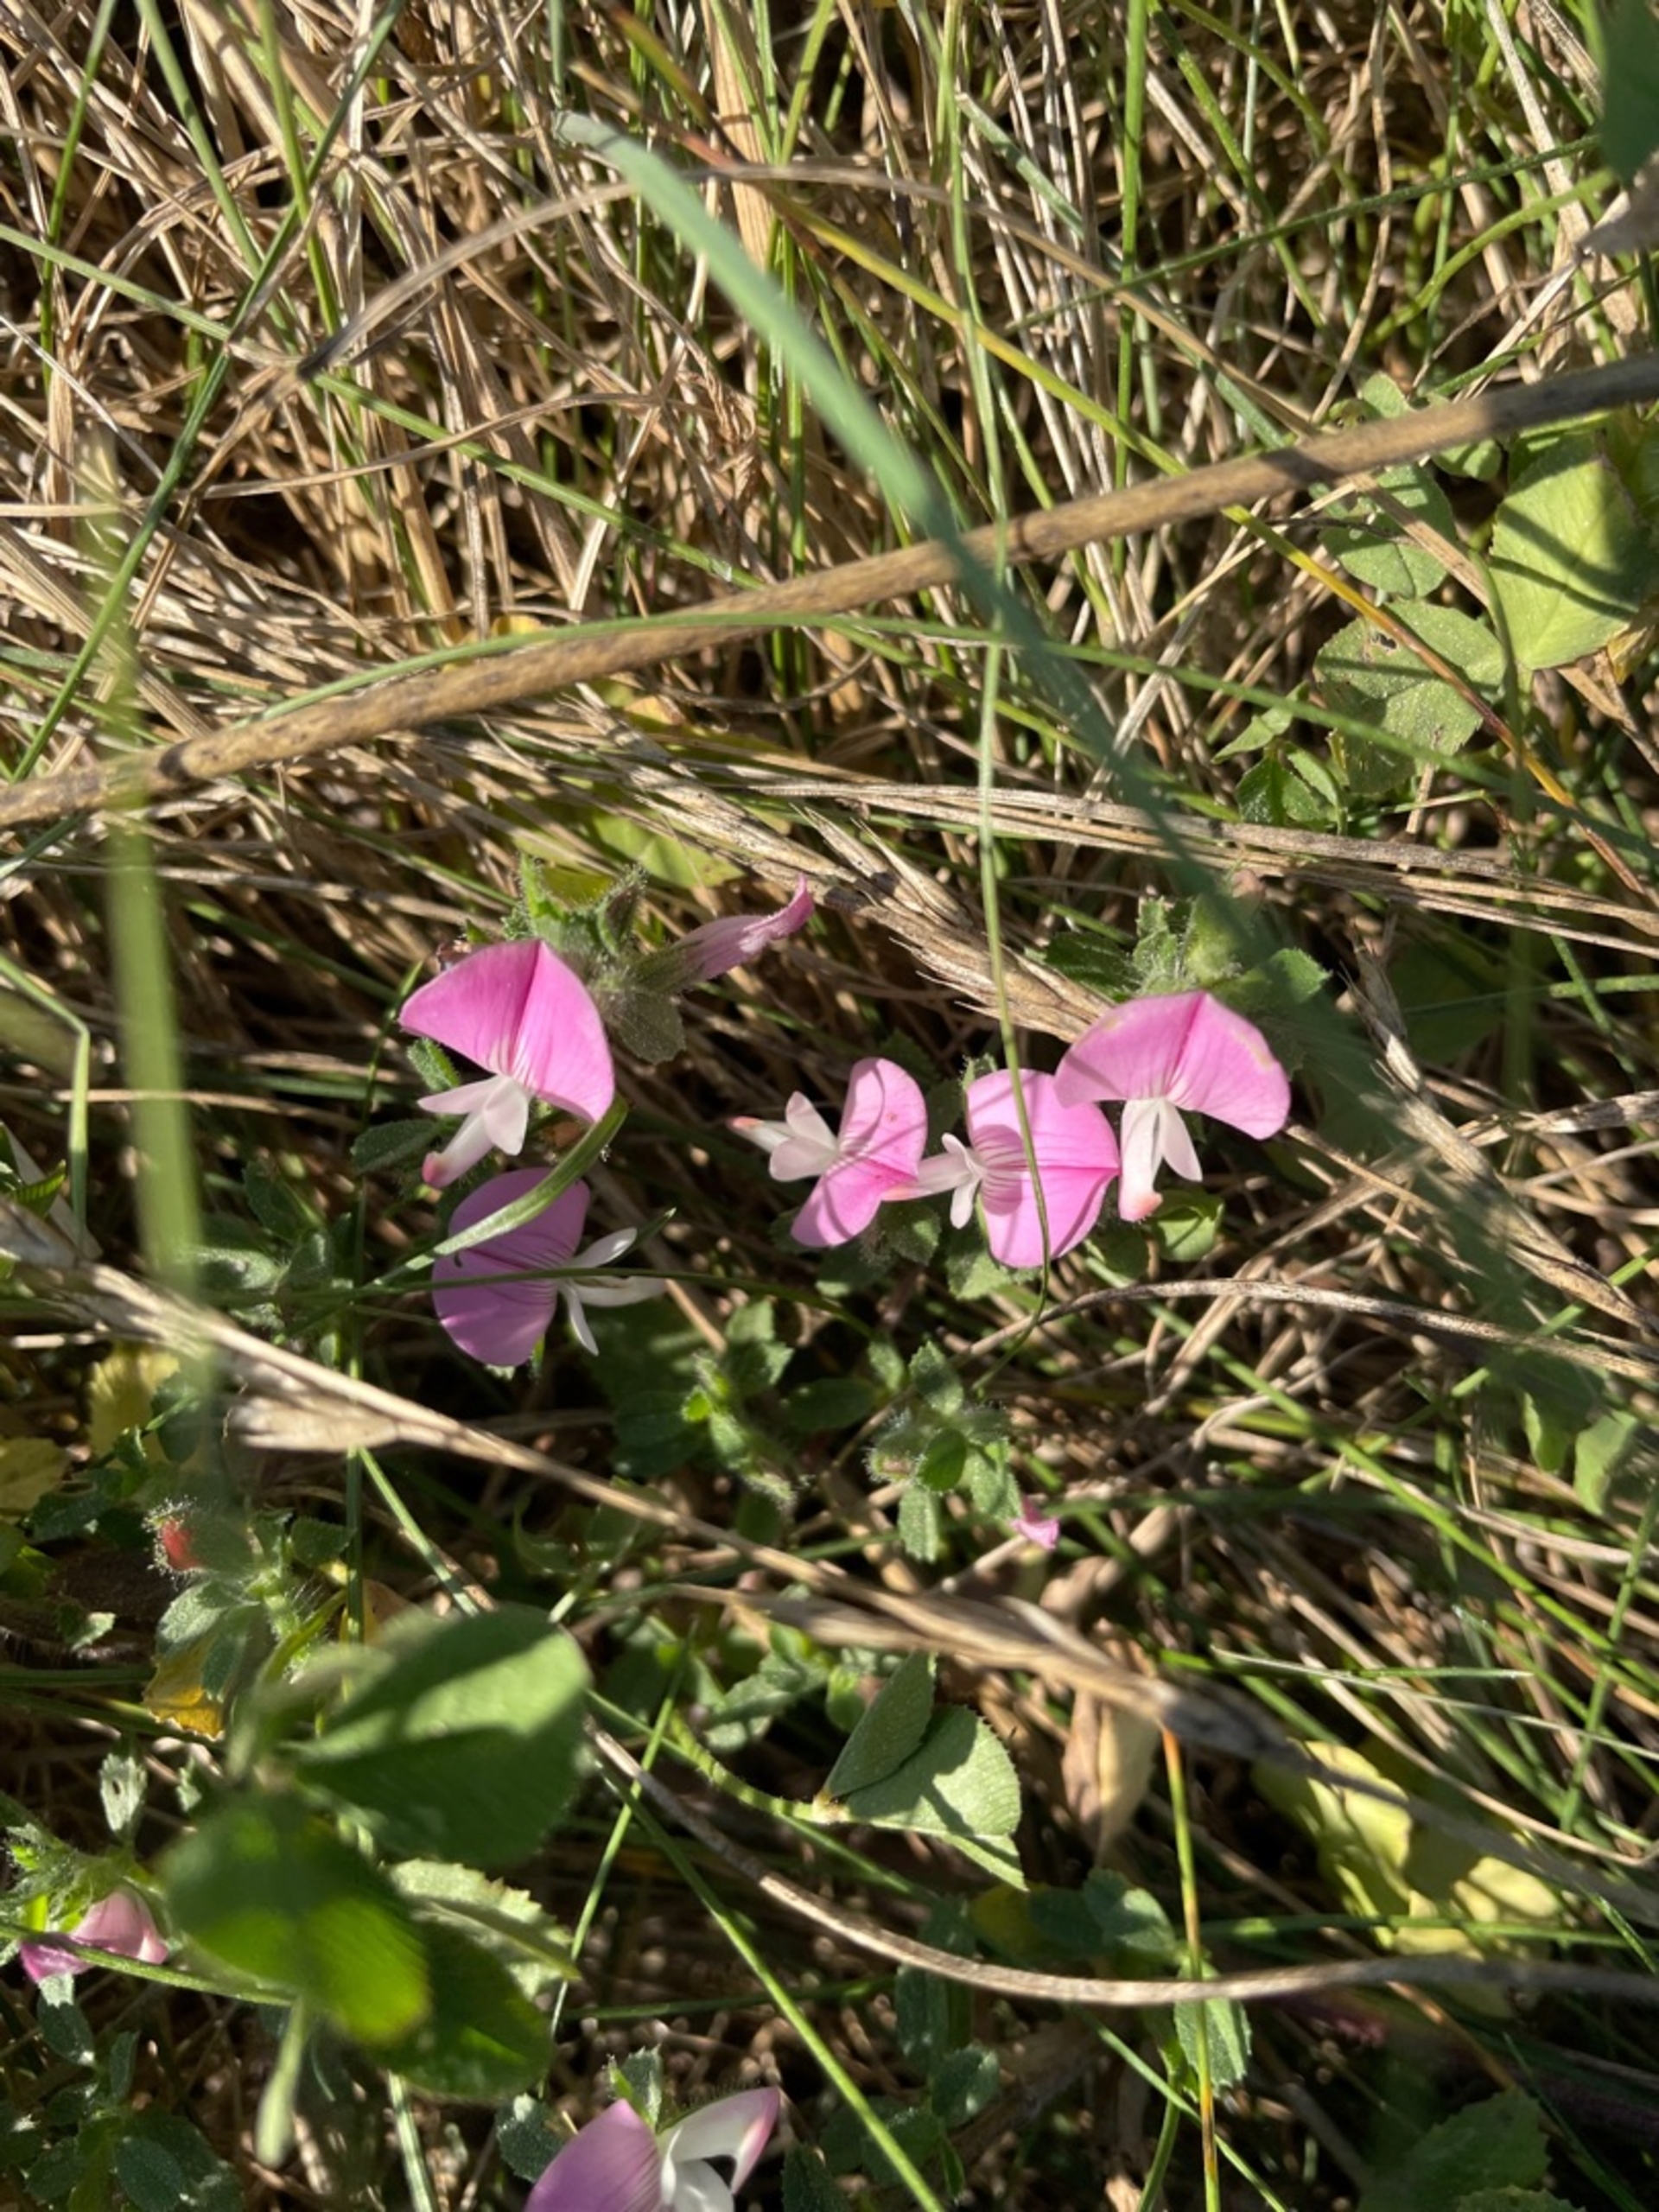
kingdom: Plantae
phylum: Tracheophyta
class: Magnoliopsida
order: Fabales
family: Fabaceae
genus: Ononis
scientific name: Ononis spinosa
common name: Mark-krageklo
